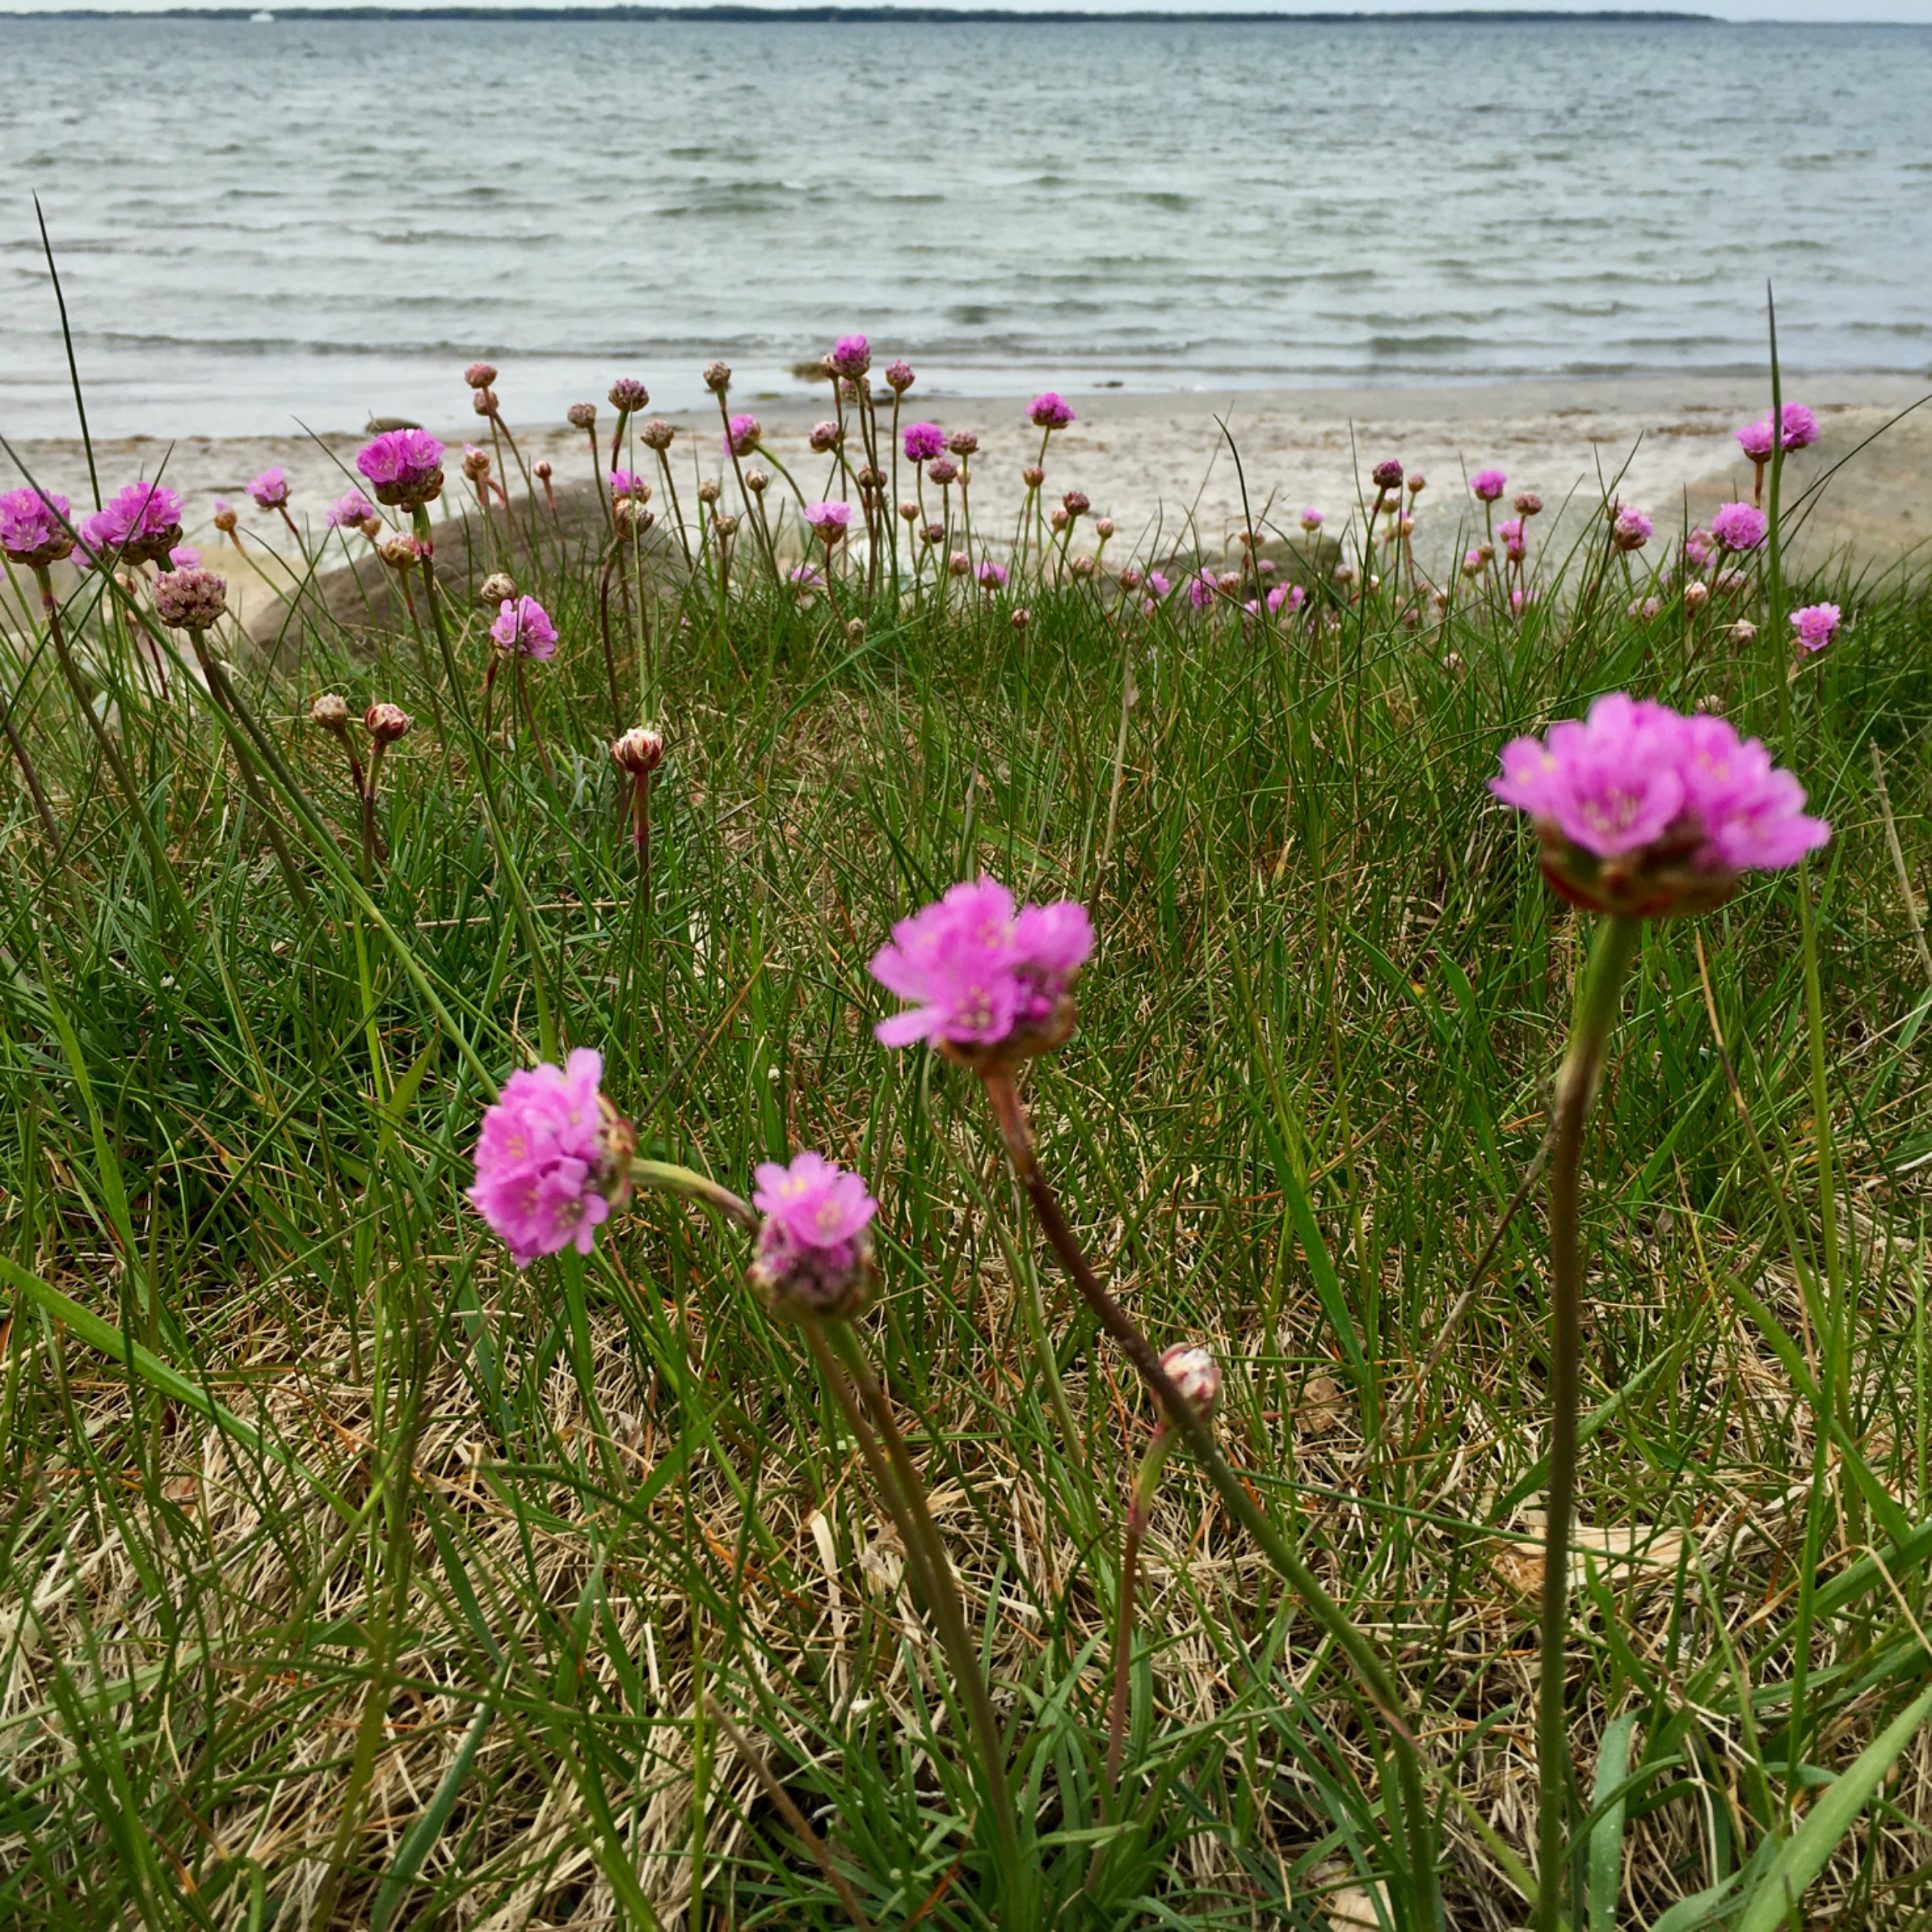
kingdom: Plantae
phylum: Tracheophyta
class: Magnoliopsida
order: Caryophyllales
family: Plumbaginaceae
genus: Armeria
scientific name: Armeria maritima
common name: Engelskgræs
